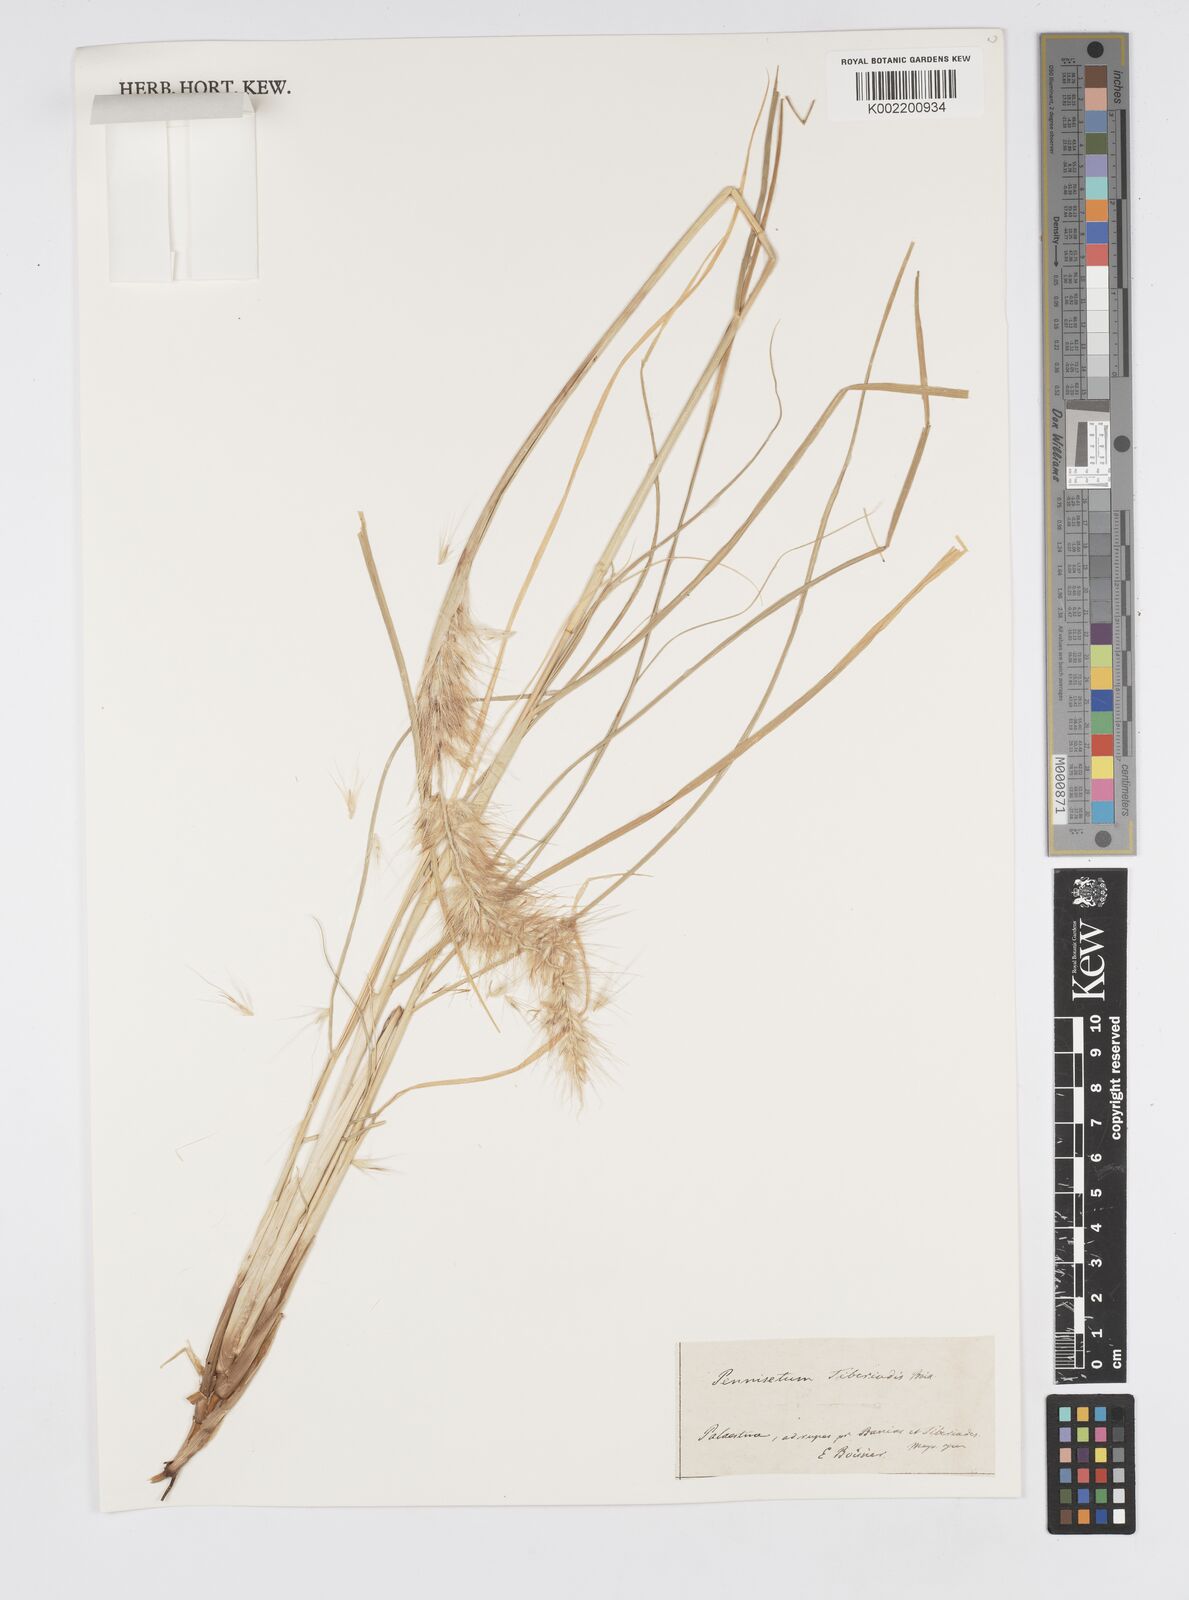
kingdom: Plantae
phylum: Tracheophyta
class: Liliopsida
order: Poales
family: Poaceae
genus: Cenchrus
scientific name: Cenchrus setaceus
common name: Crimson fountaingrass
